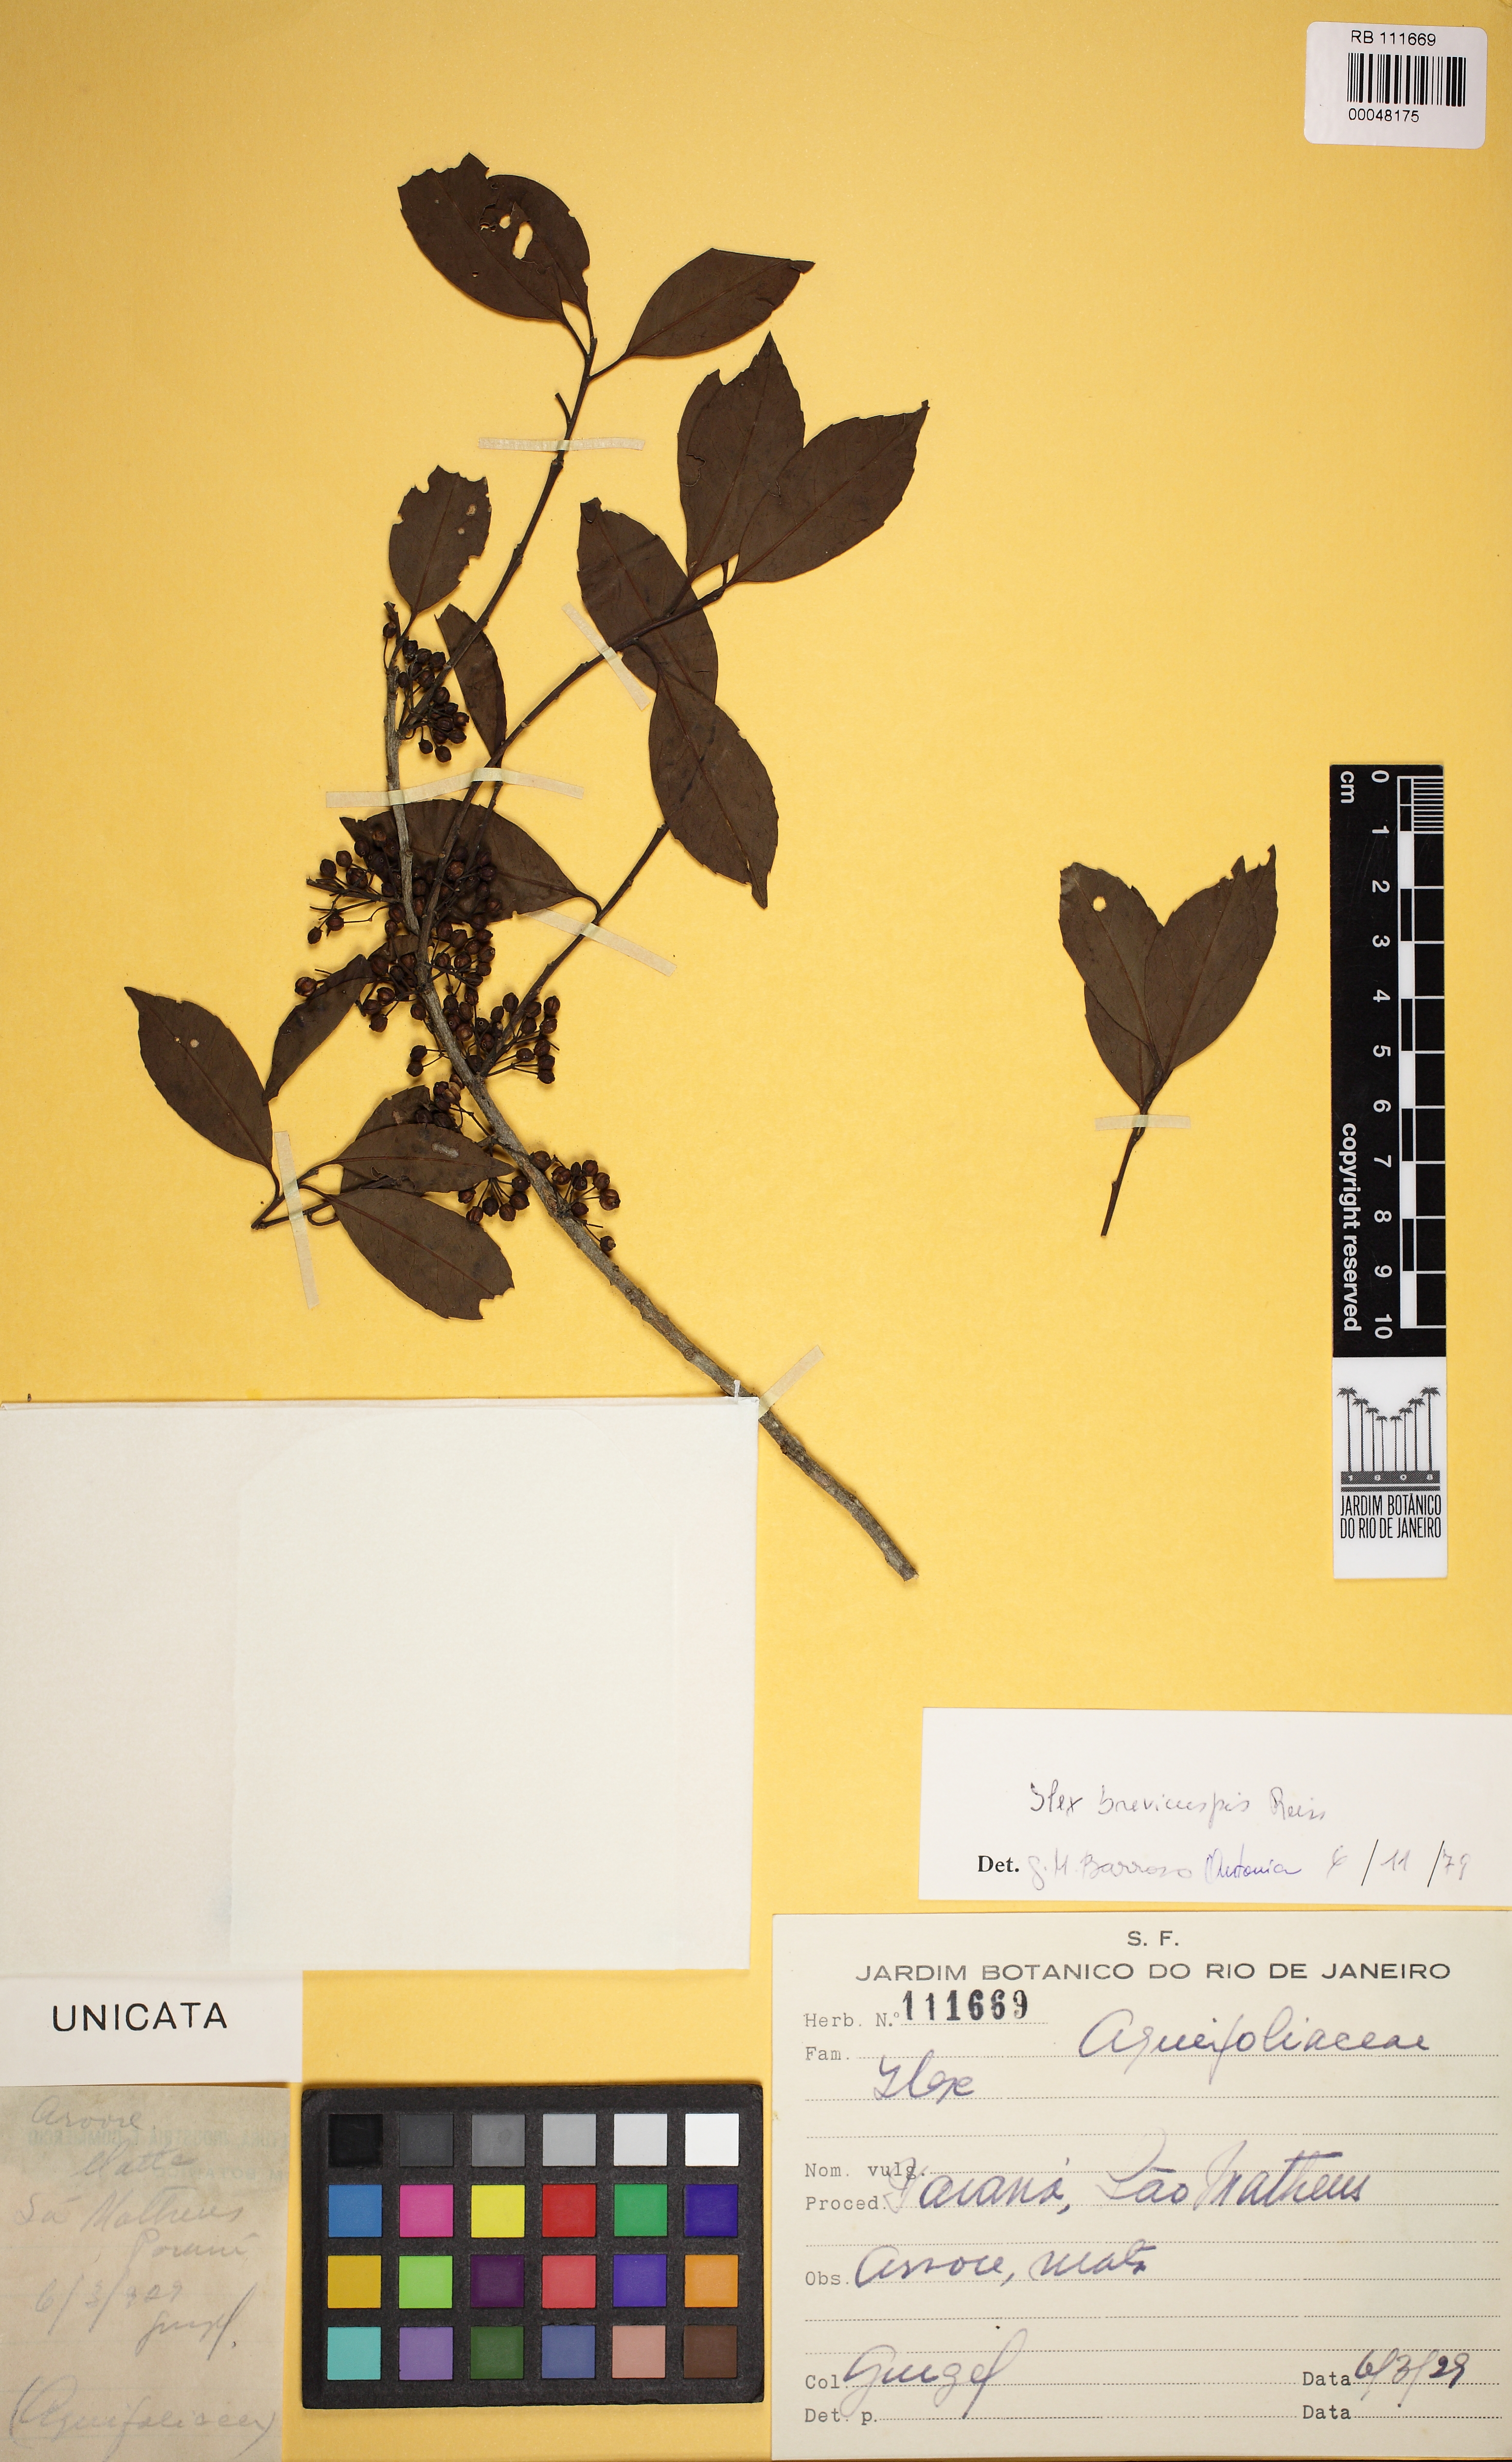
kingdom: Plantae
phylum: Tracheophyta
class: Magnoliopsida
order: Aquifoliales
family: Aquifoliaceae
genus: Ilex
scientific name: Ilex brevicuspis
